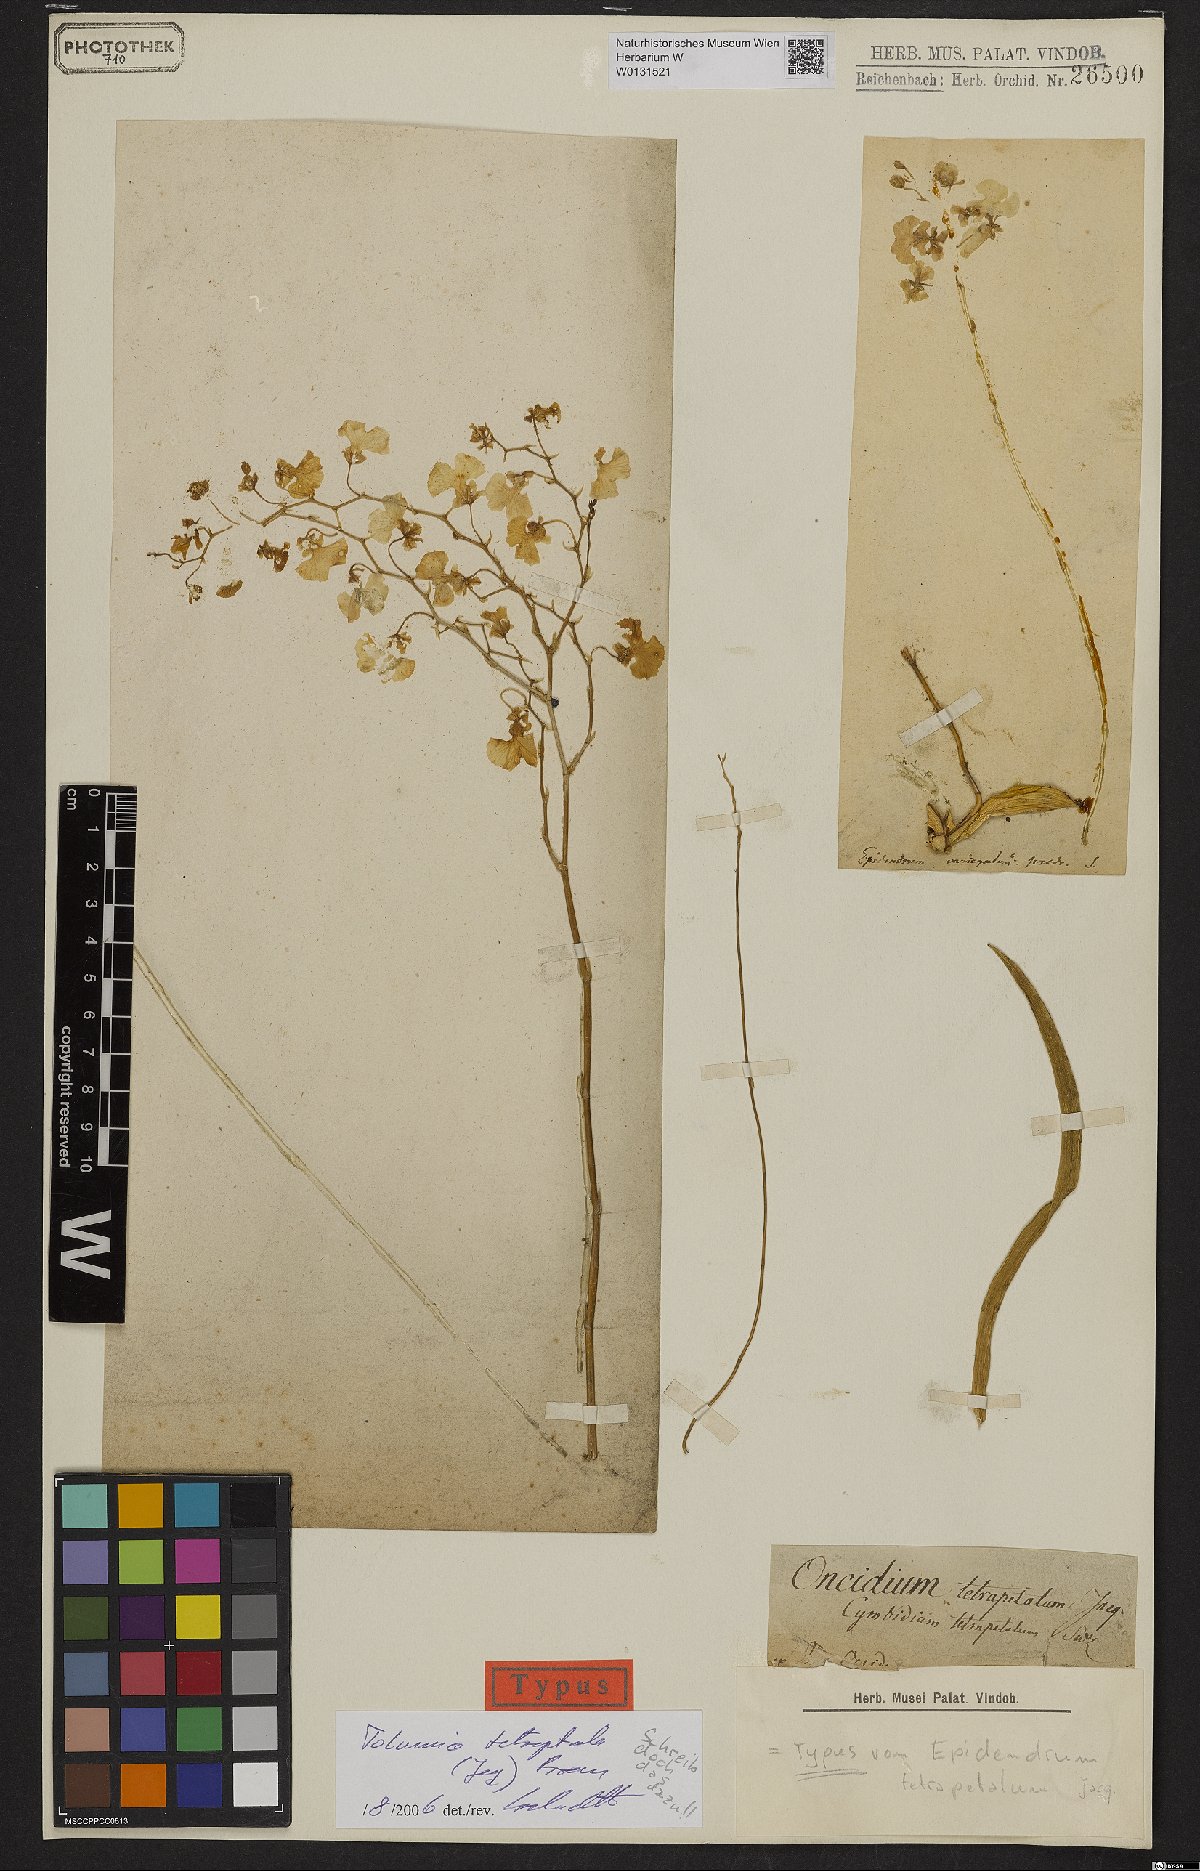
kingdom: Plantae
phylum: Tracheophyta
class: Liliopsida
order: Asparagales
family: Orchidaceae
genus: Tolumnia
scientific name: Tolumnia guttata
